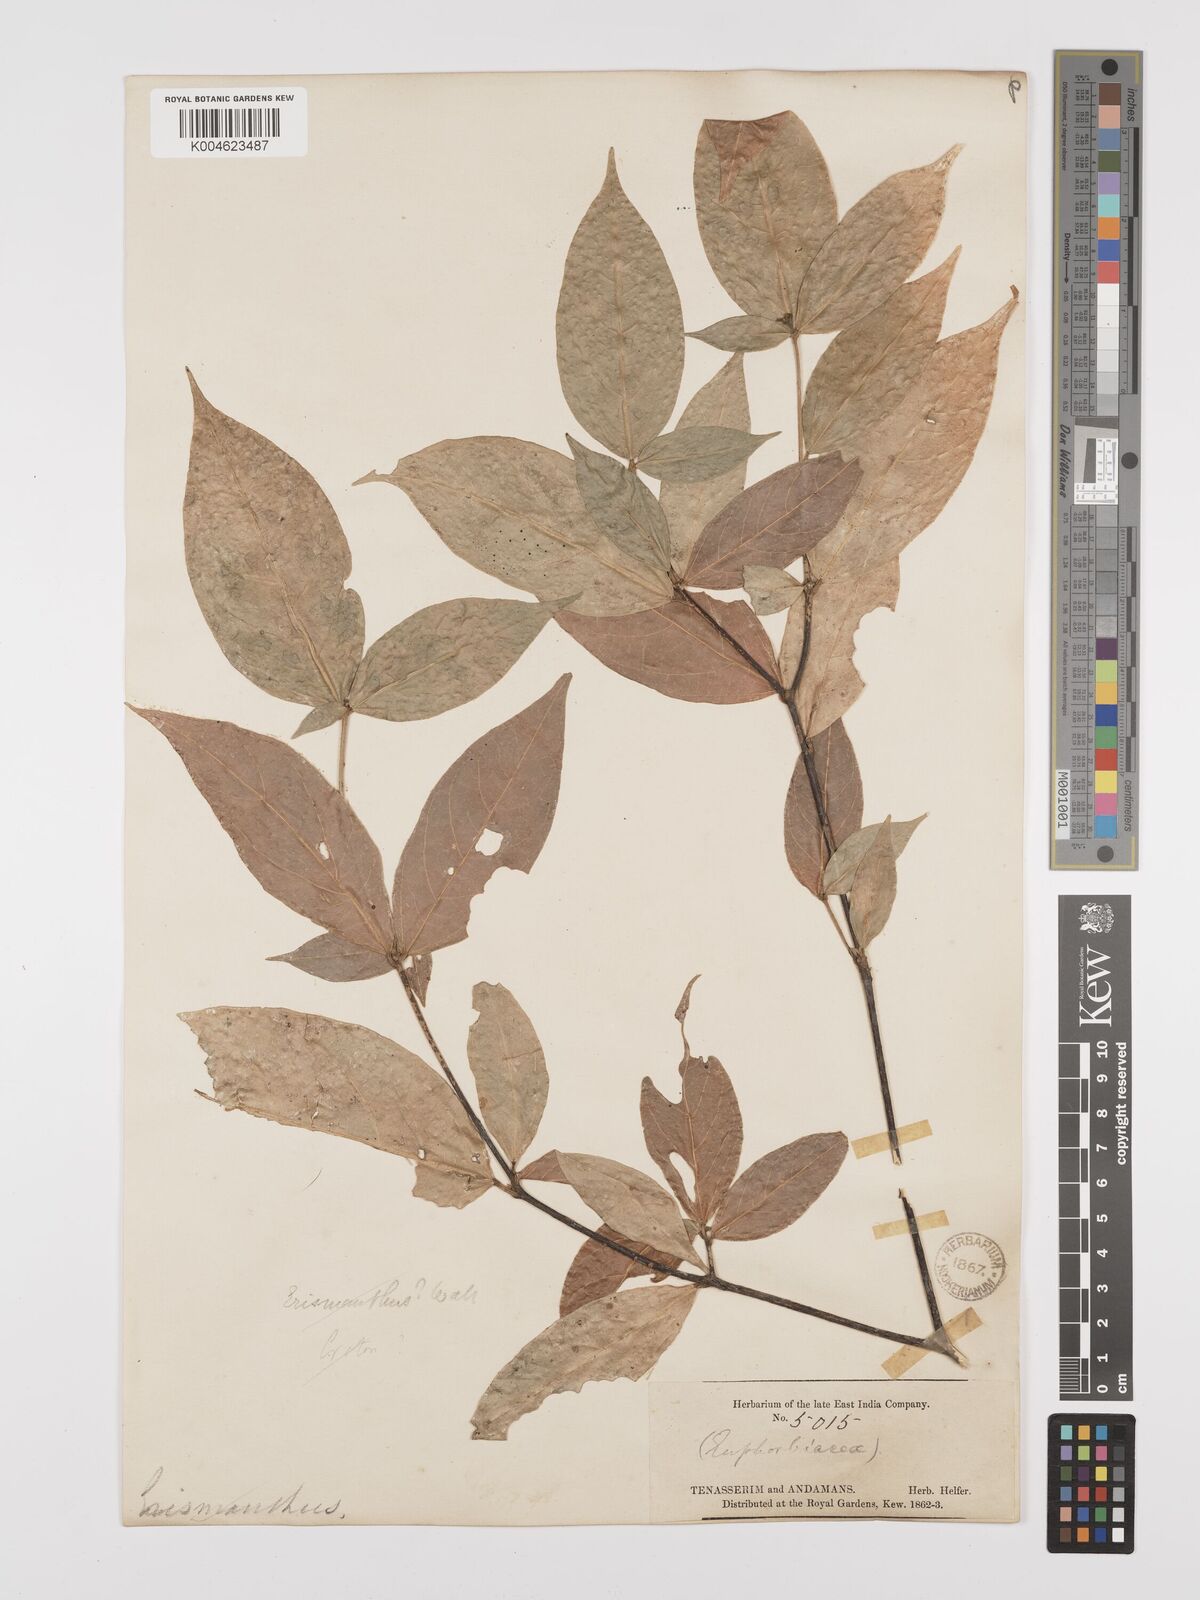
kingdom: Plantae
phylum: Tracheophyta
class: Magnoliopsida
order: Malpighiales
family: Euphorbiaceae
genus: Trigonostemon
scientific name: Trigonostemon laevigatus
